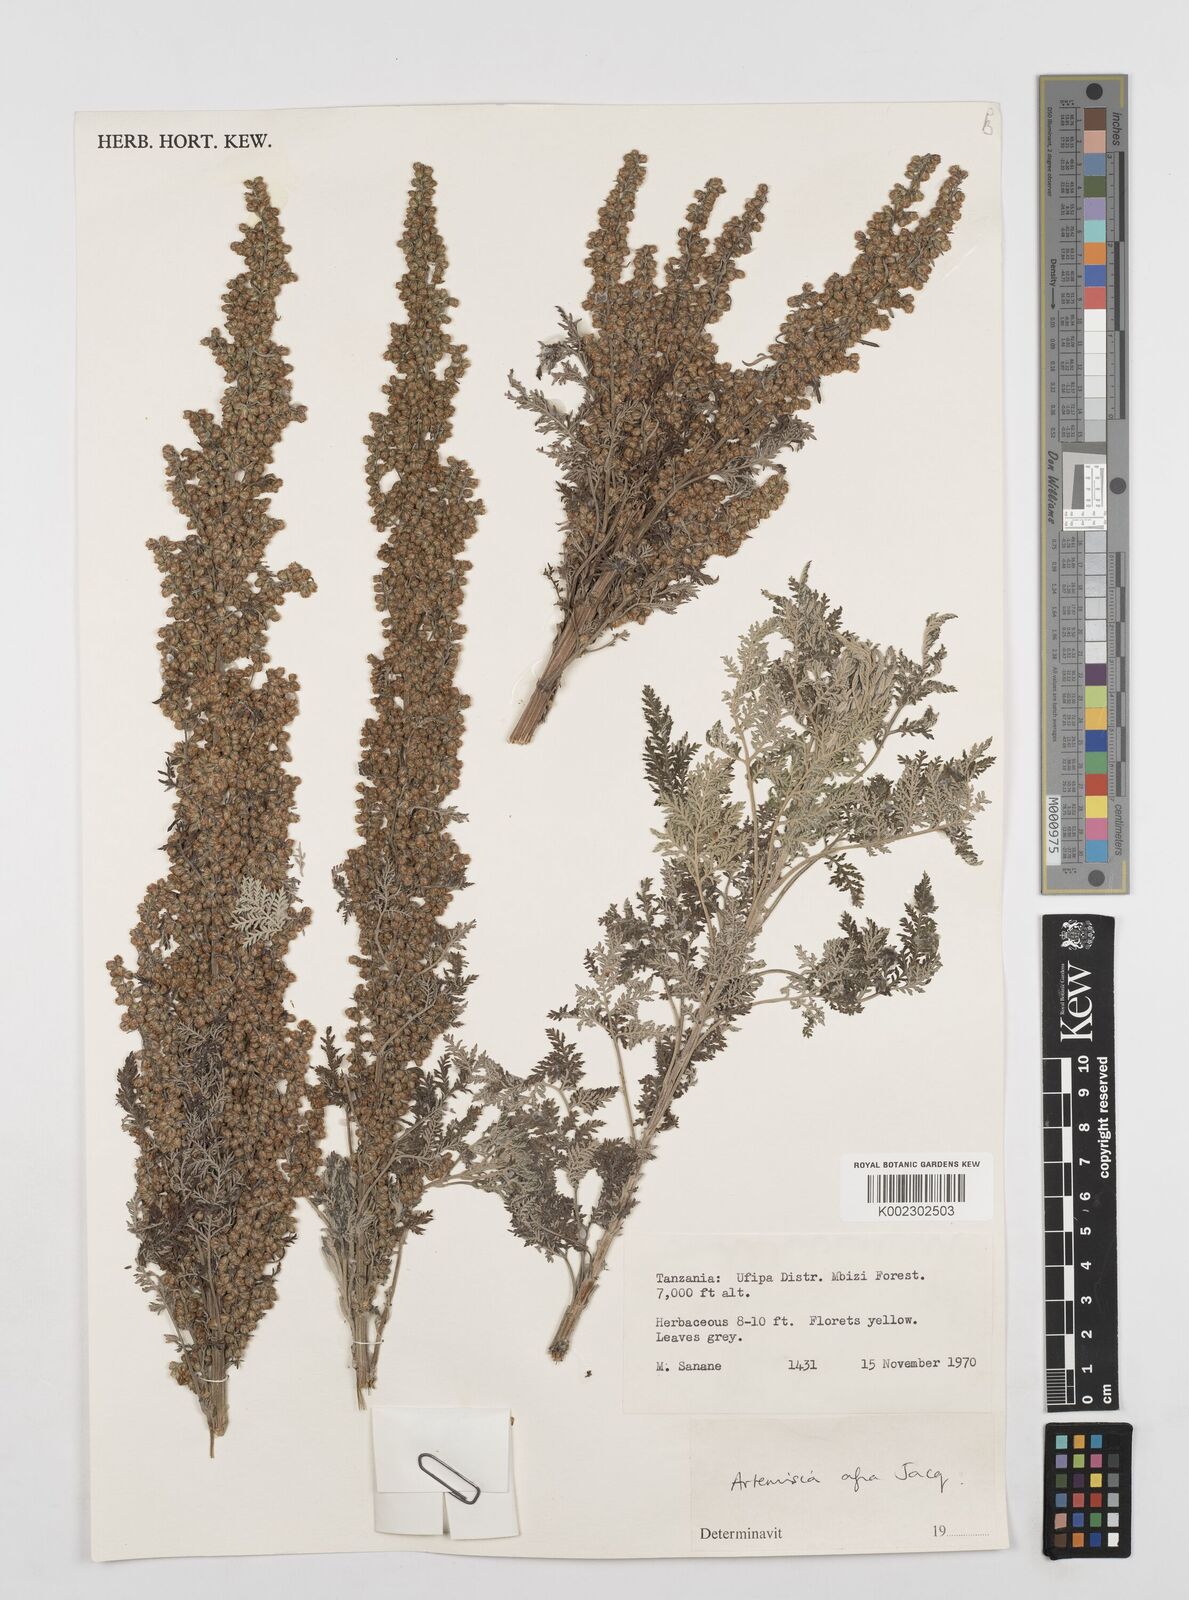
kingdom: Plantae
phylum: Tracheophyta
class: Magnoliopsida
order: Asterales
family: Asteraceae
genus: Artemisia
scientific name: Artemisia afra
